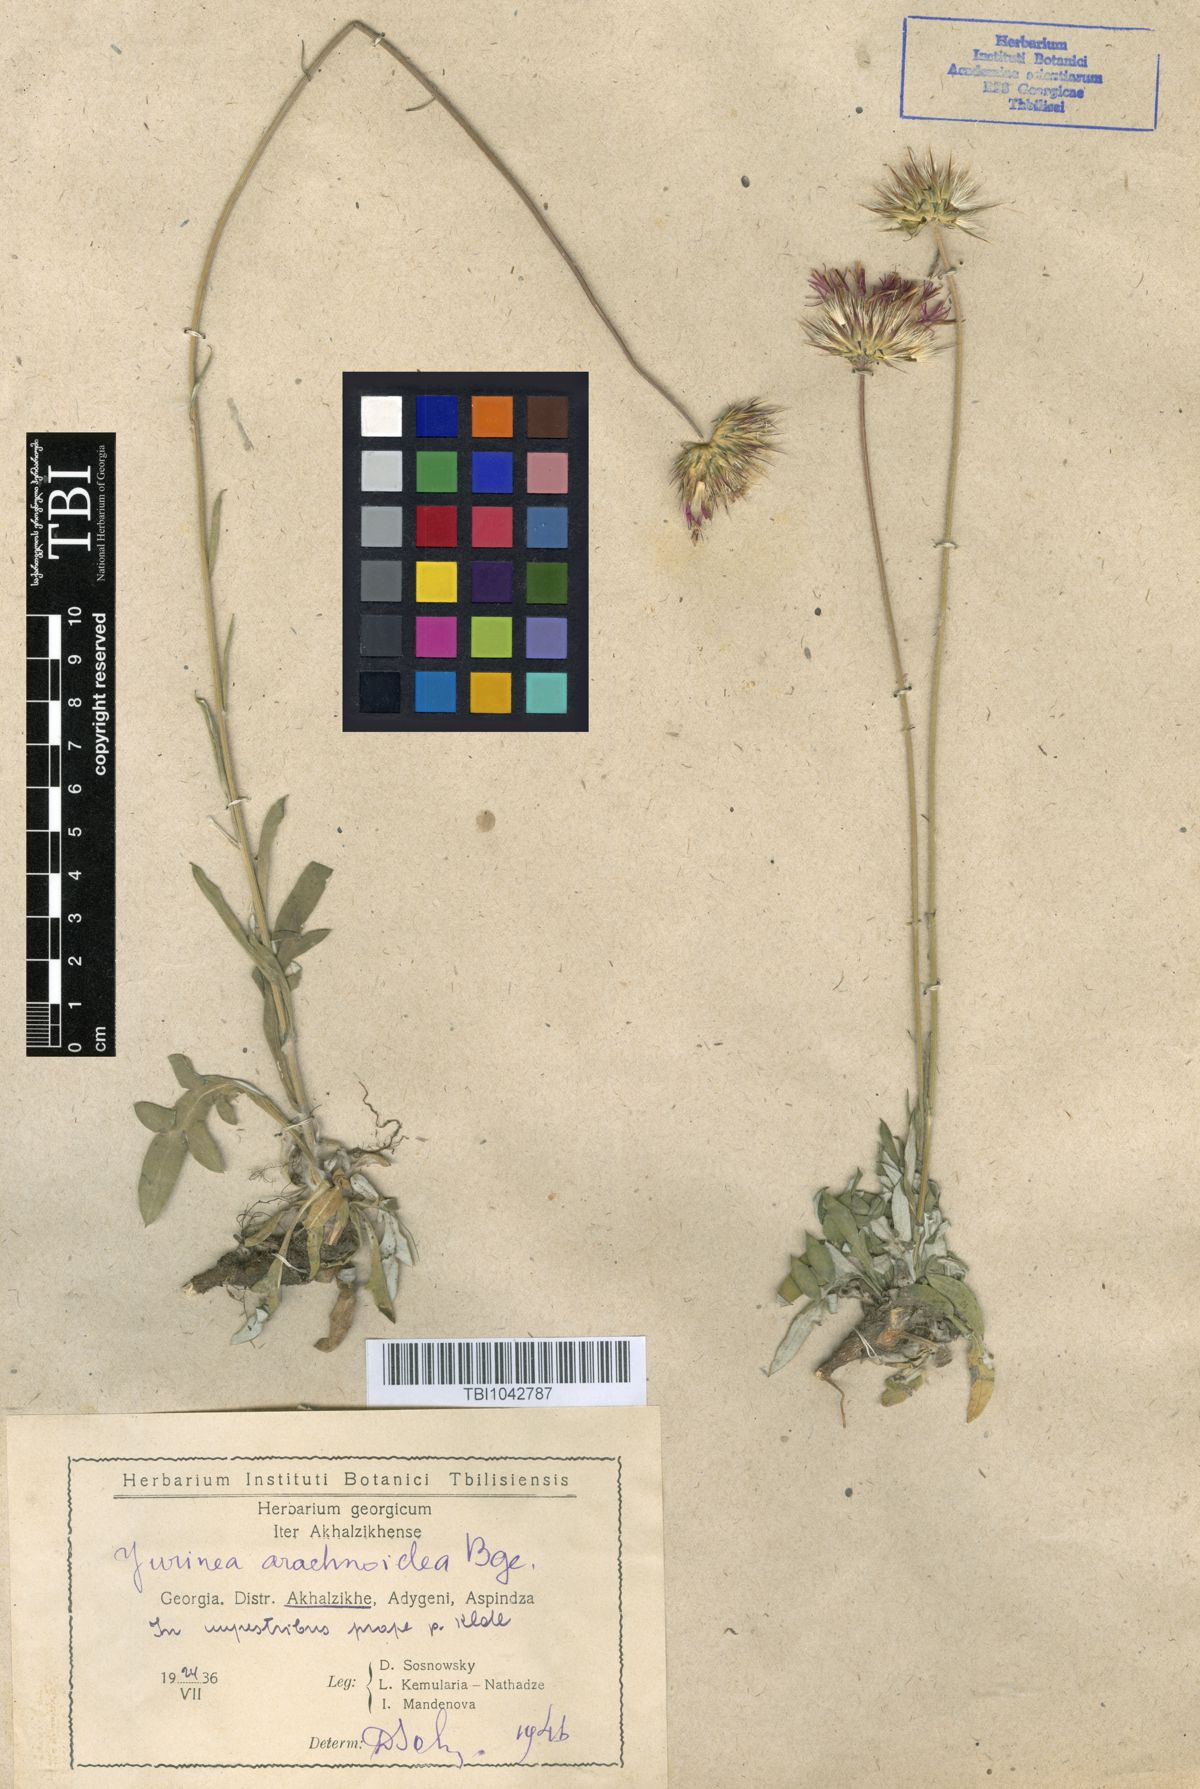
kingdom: Plantae
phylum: Tracheophyta
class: Magnoliopsida
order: Asterales
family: Asteraceae
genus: Jurinea
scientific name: Jurinea blanda
